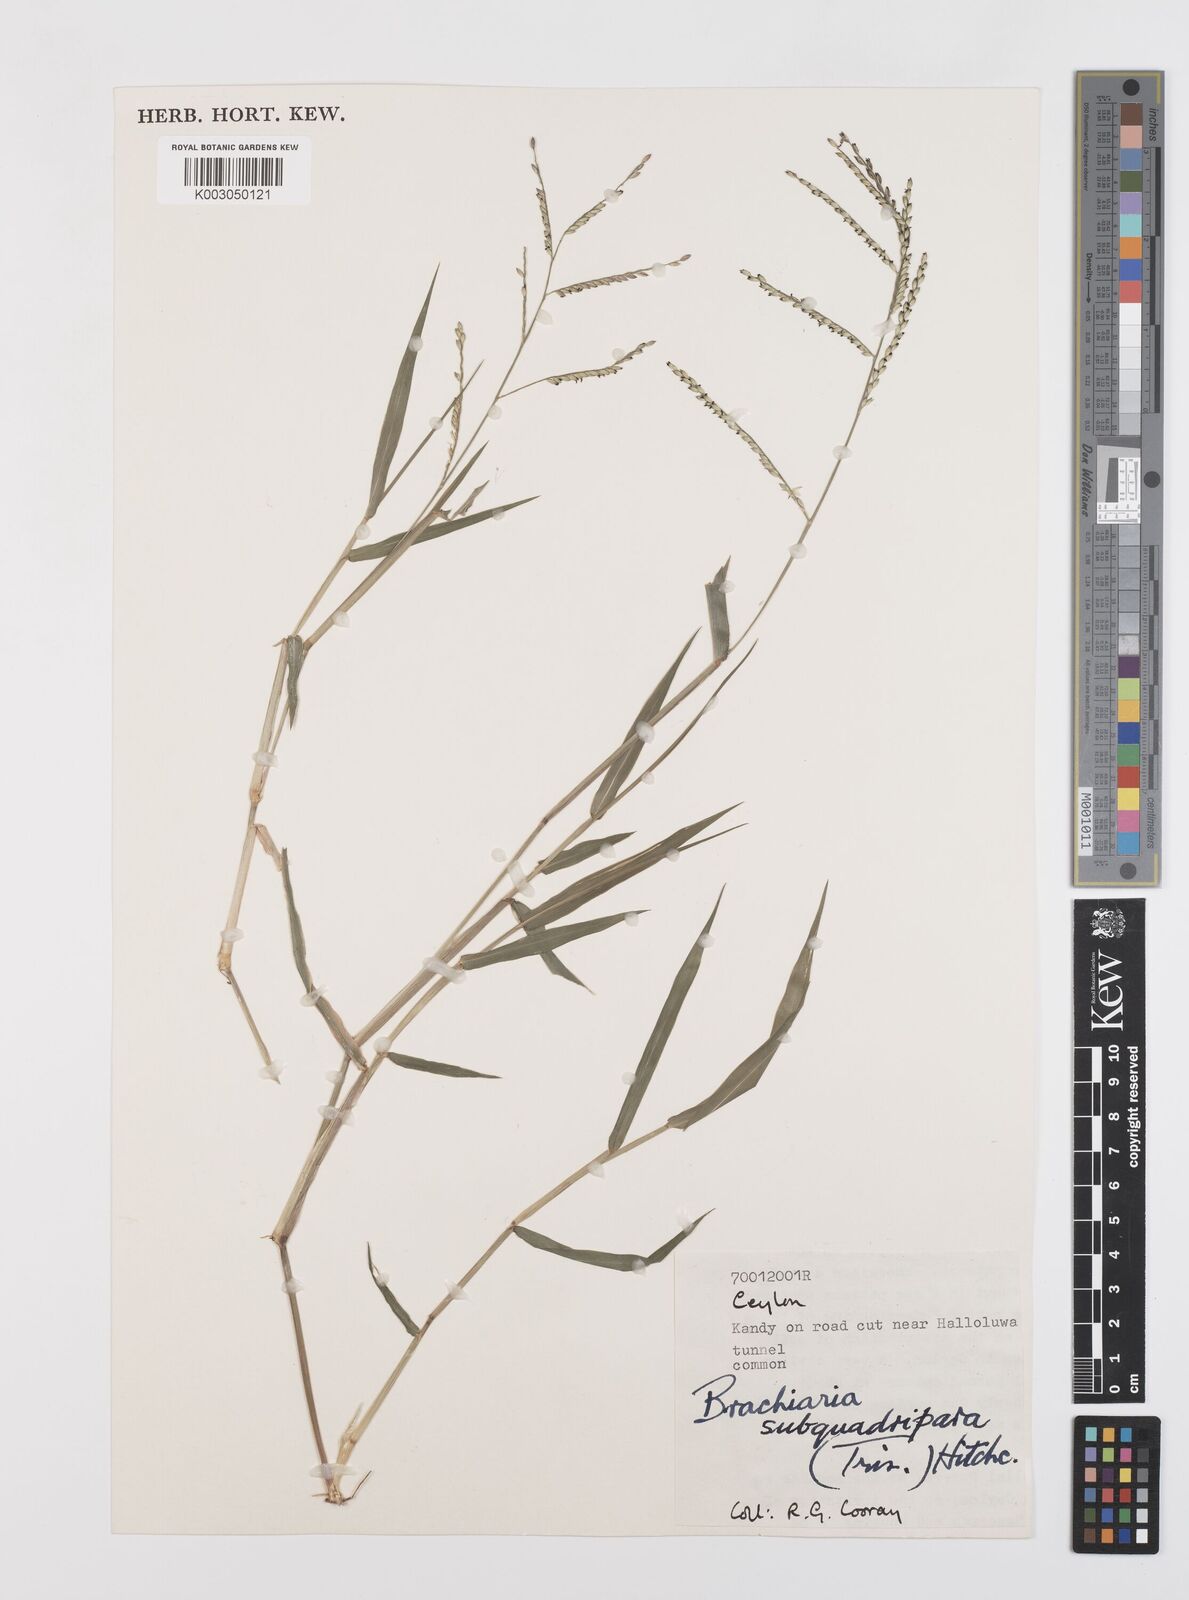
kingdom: Plantae
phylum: Tracheophyta
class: Liliopsida
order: Poales
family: Poaceae
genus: Urochloa
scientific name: Urochloa subquadripara
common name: Armgrass millet
